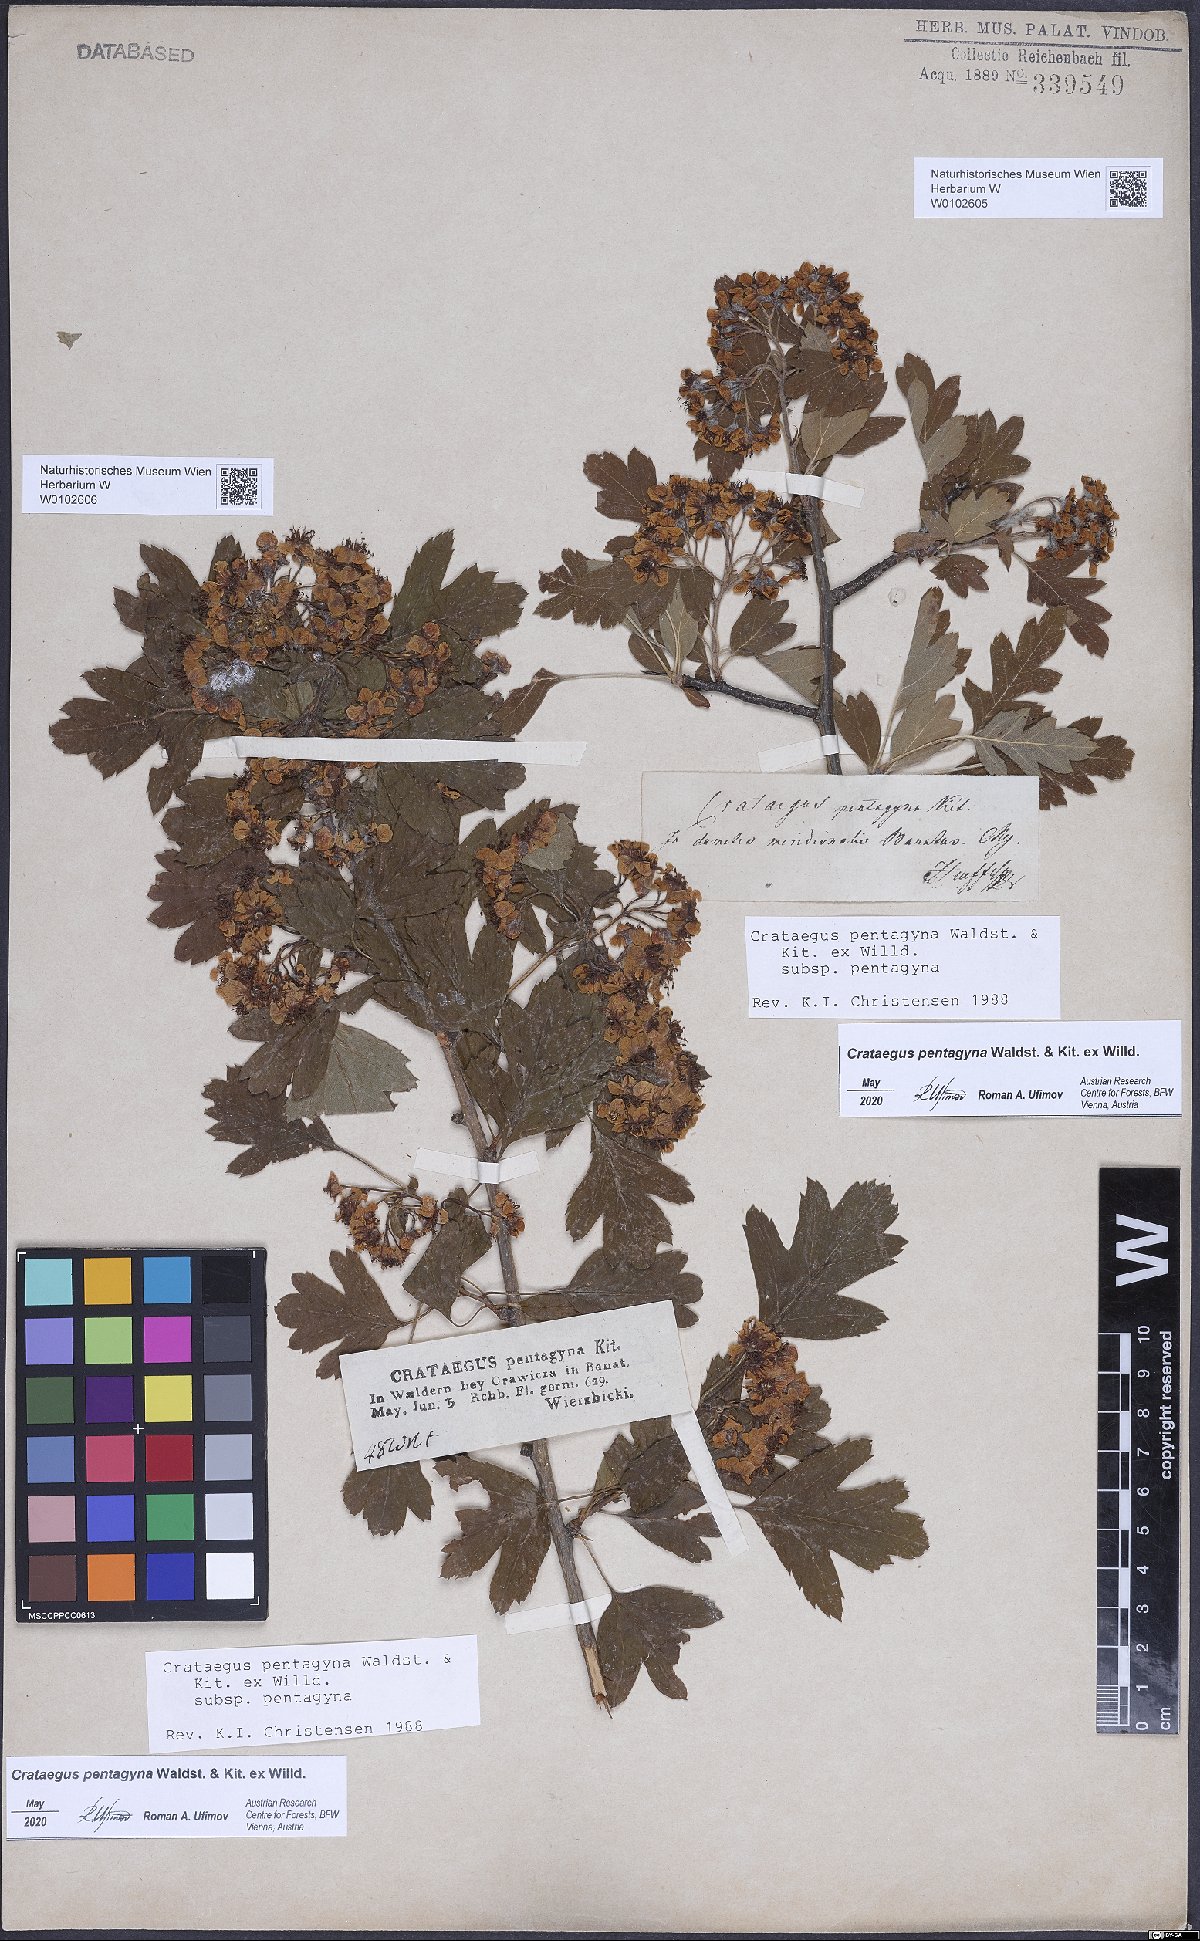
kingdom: Plantae
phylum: Tracheophyta
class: Magnoliopsida
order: Rosales
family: Rosaceae
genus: Crataegus
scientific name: Crataegus pentagyna
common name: Small-flowered black hawthorn
